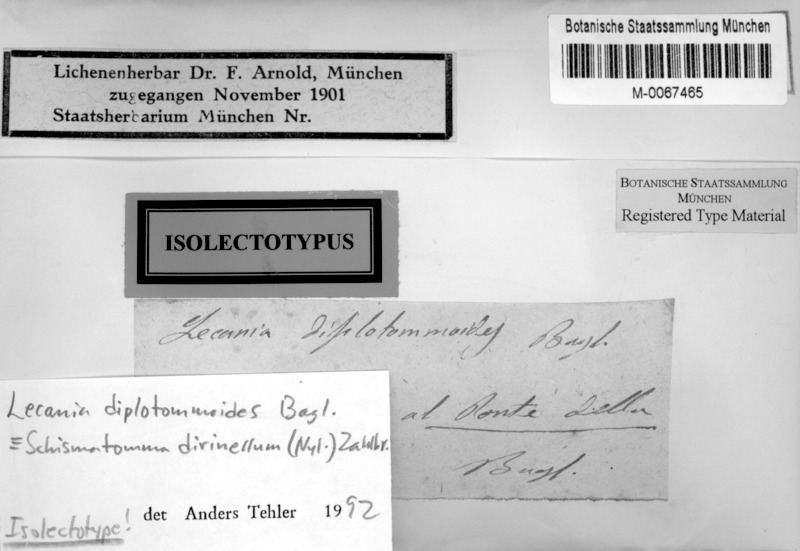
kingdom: Fungi
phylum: Ascomycota
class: Arthoniomycetes
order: Arthoniales
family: Roccellaceae
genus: Diromma
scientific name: Diromma dirinellum
